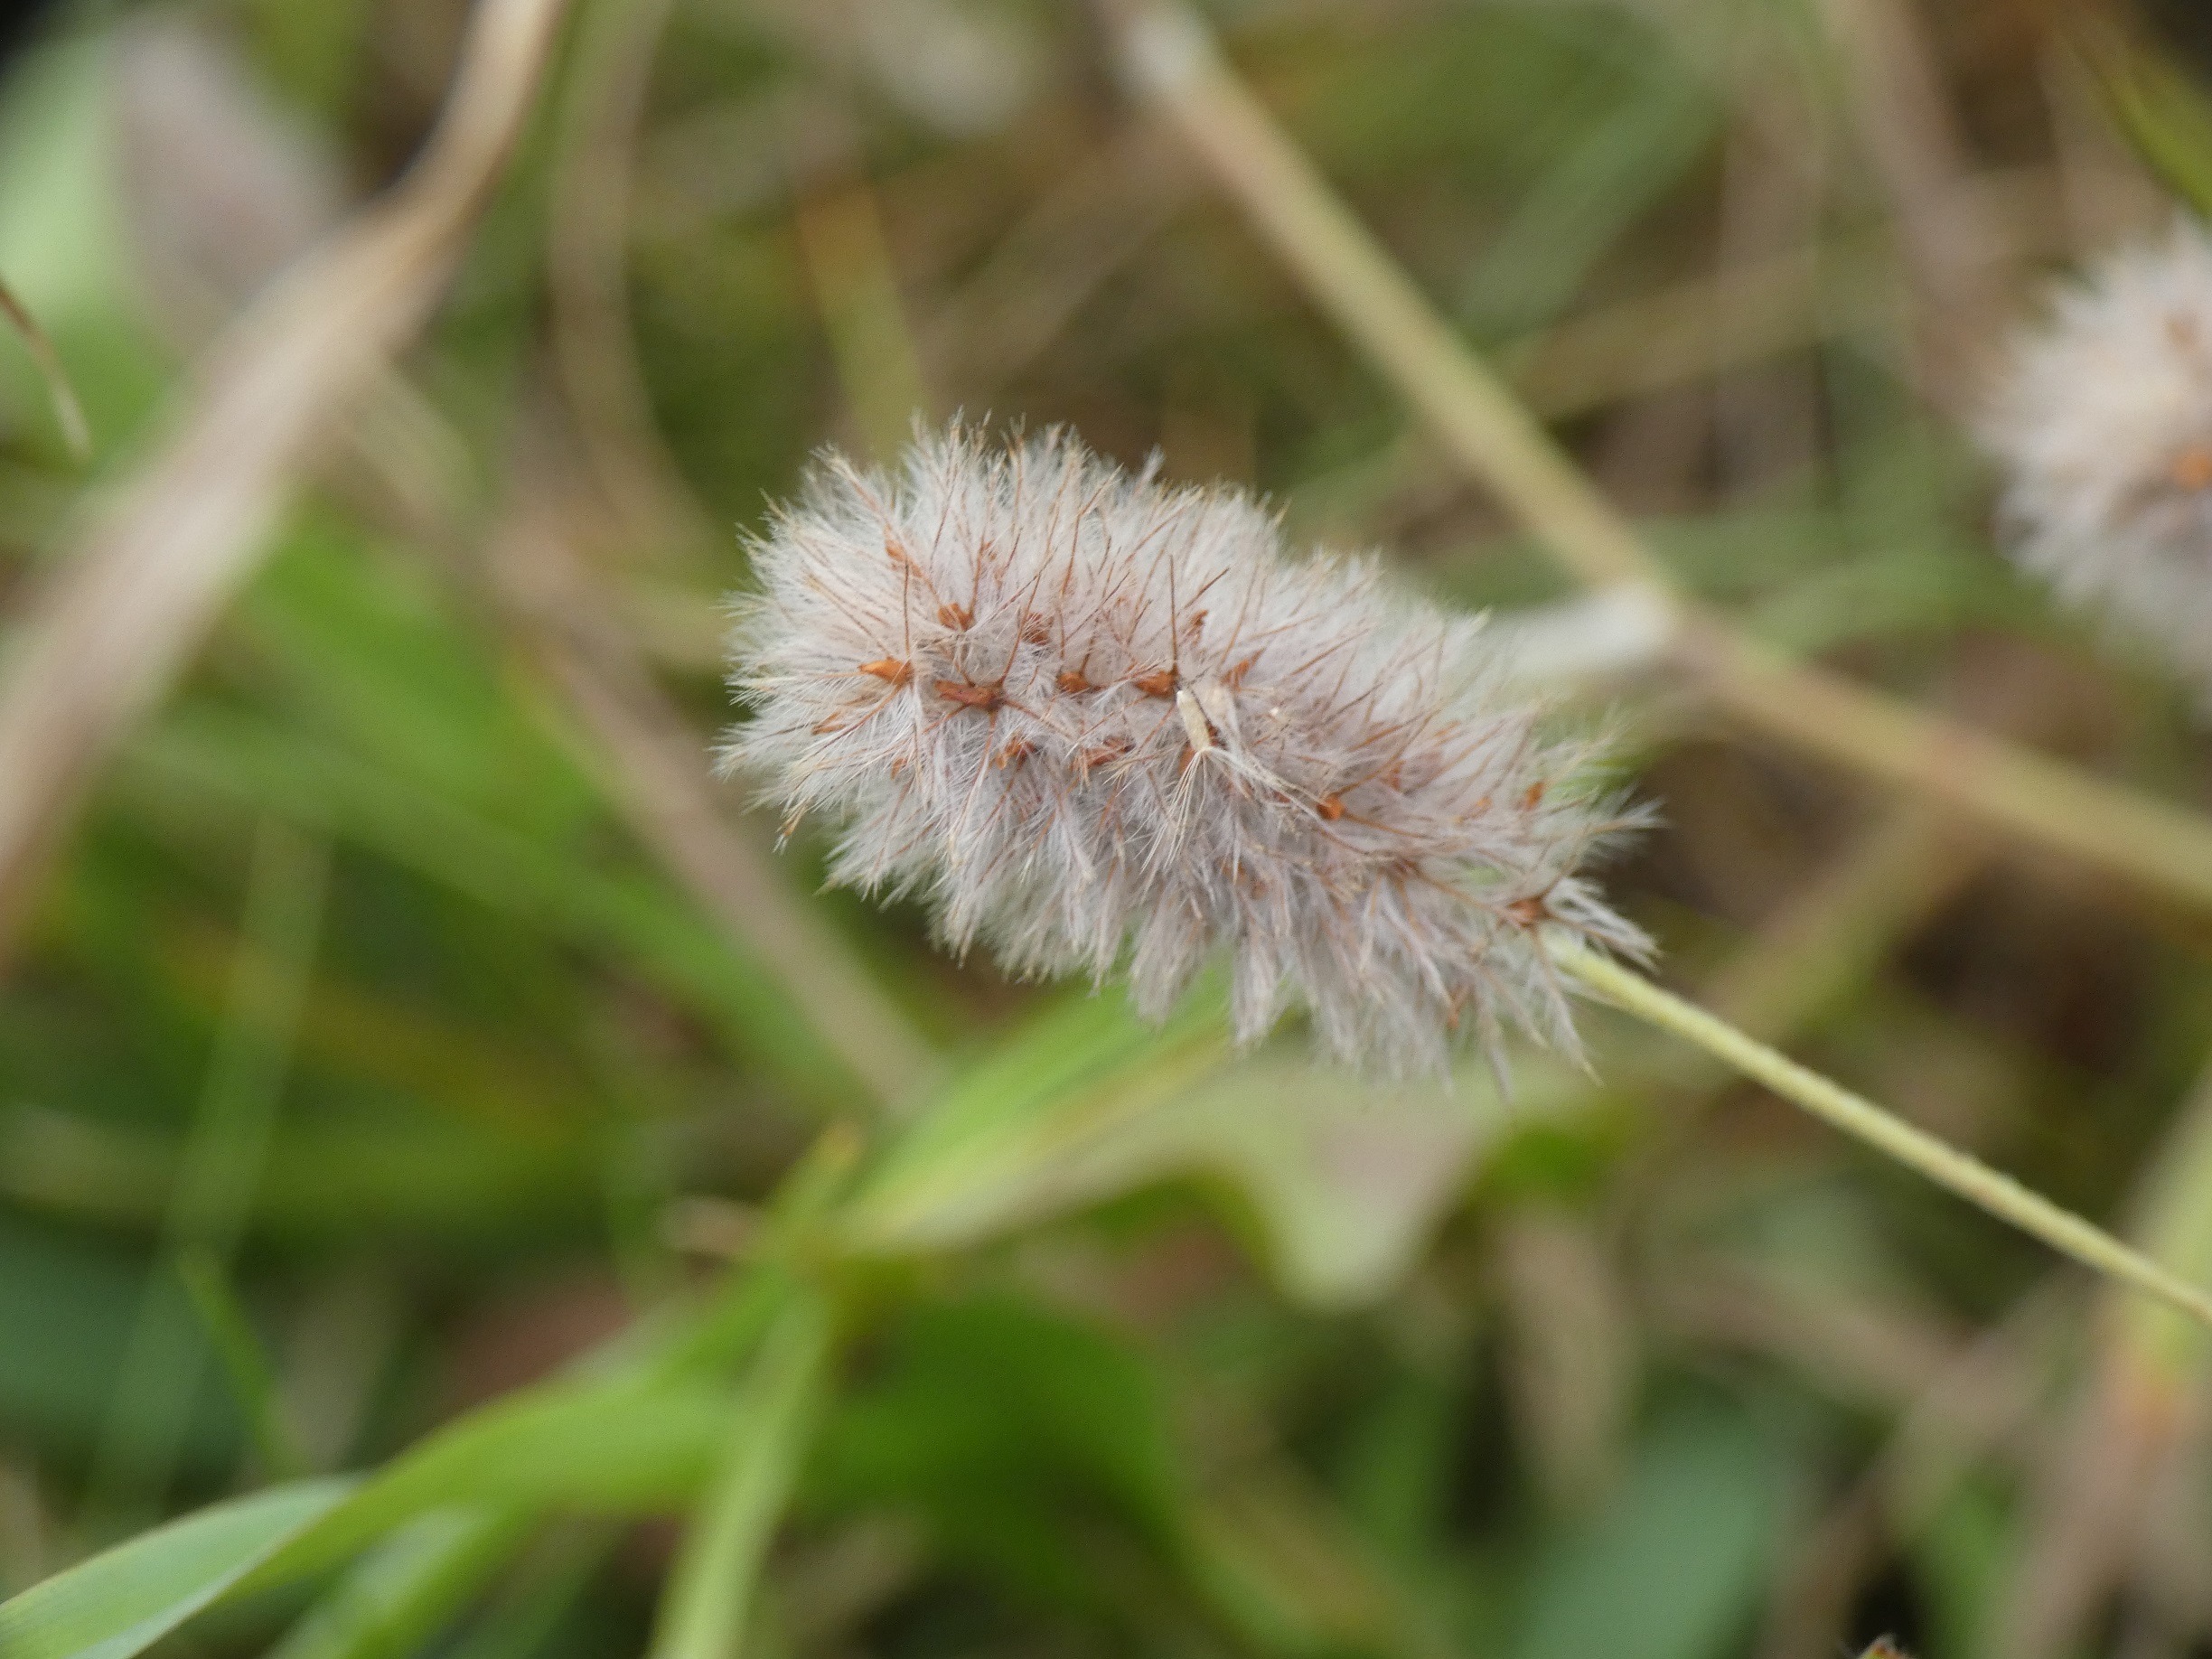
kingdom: Plantae
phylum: Tracheophyta
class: Magnoliopsida
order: Fabales
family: Fabaceae
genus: Trifolium
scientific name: Trifolium arvense
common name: Hare-kløver
